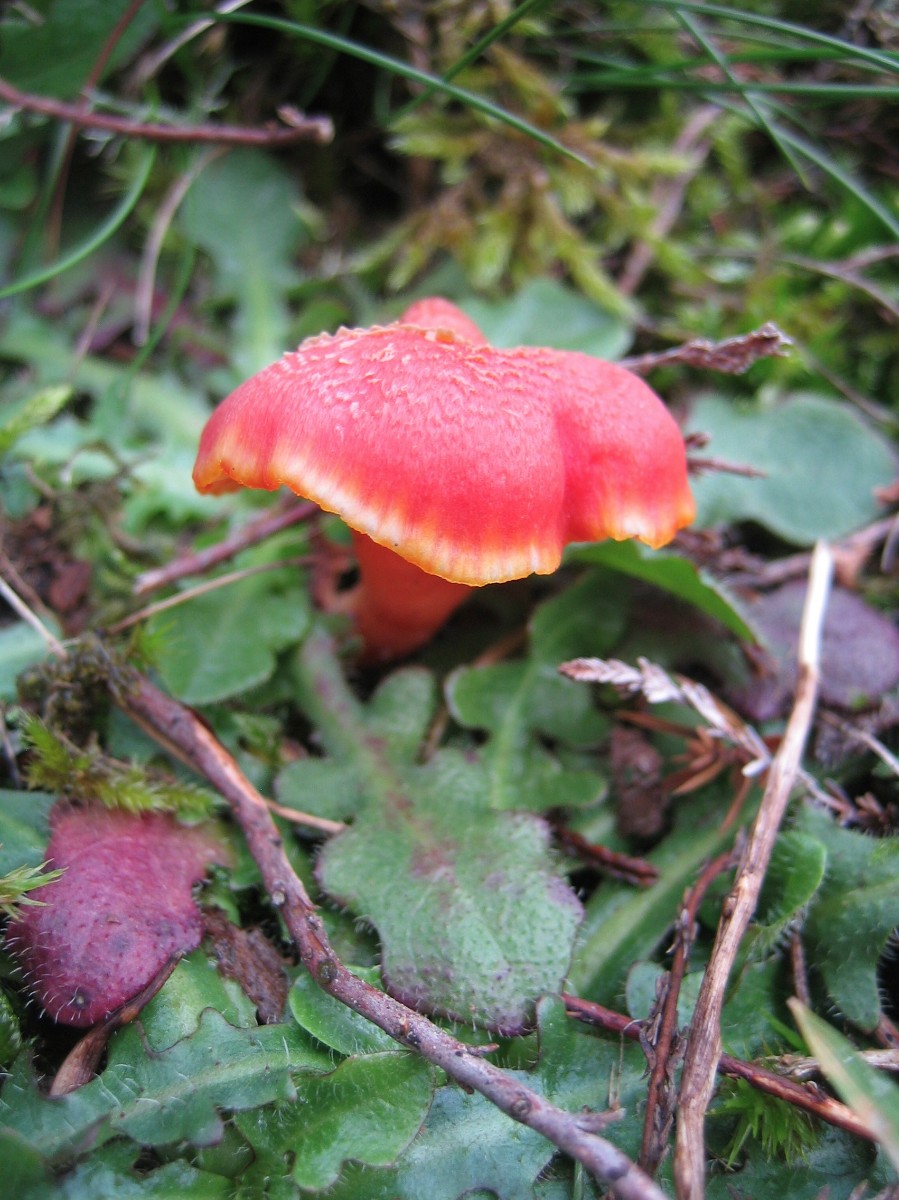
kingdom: Fungi
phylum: Basidiomycota
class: Agaricomycetes
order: Agaricales
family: Hygrophoraceae
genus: Hygrocybe
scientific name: Hygrocybe miniata
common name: mønje-vokshat
